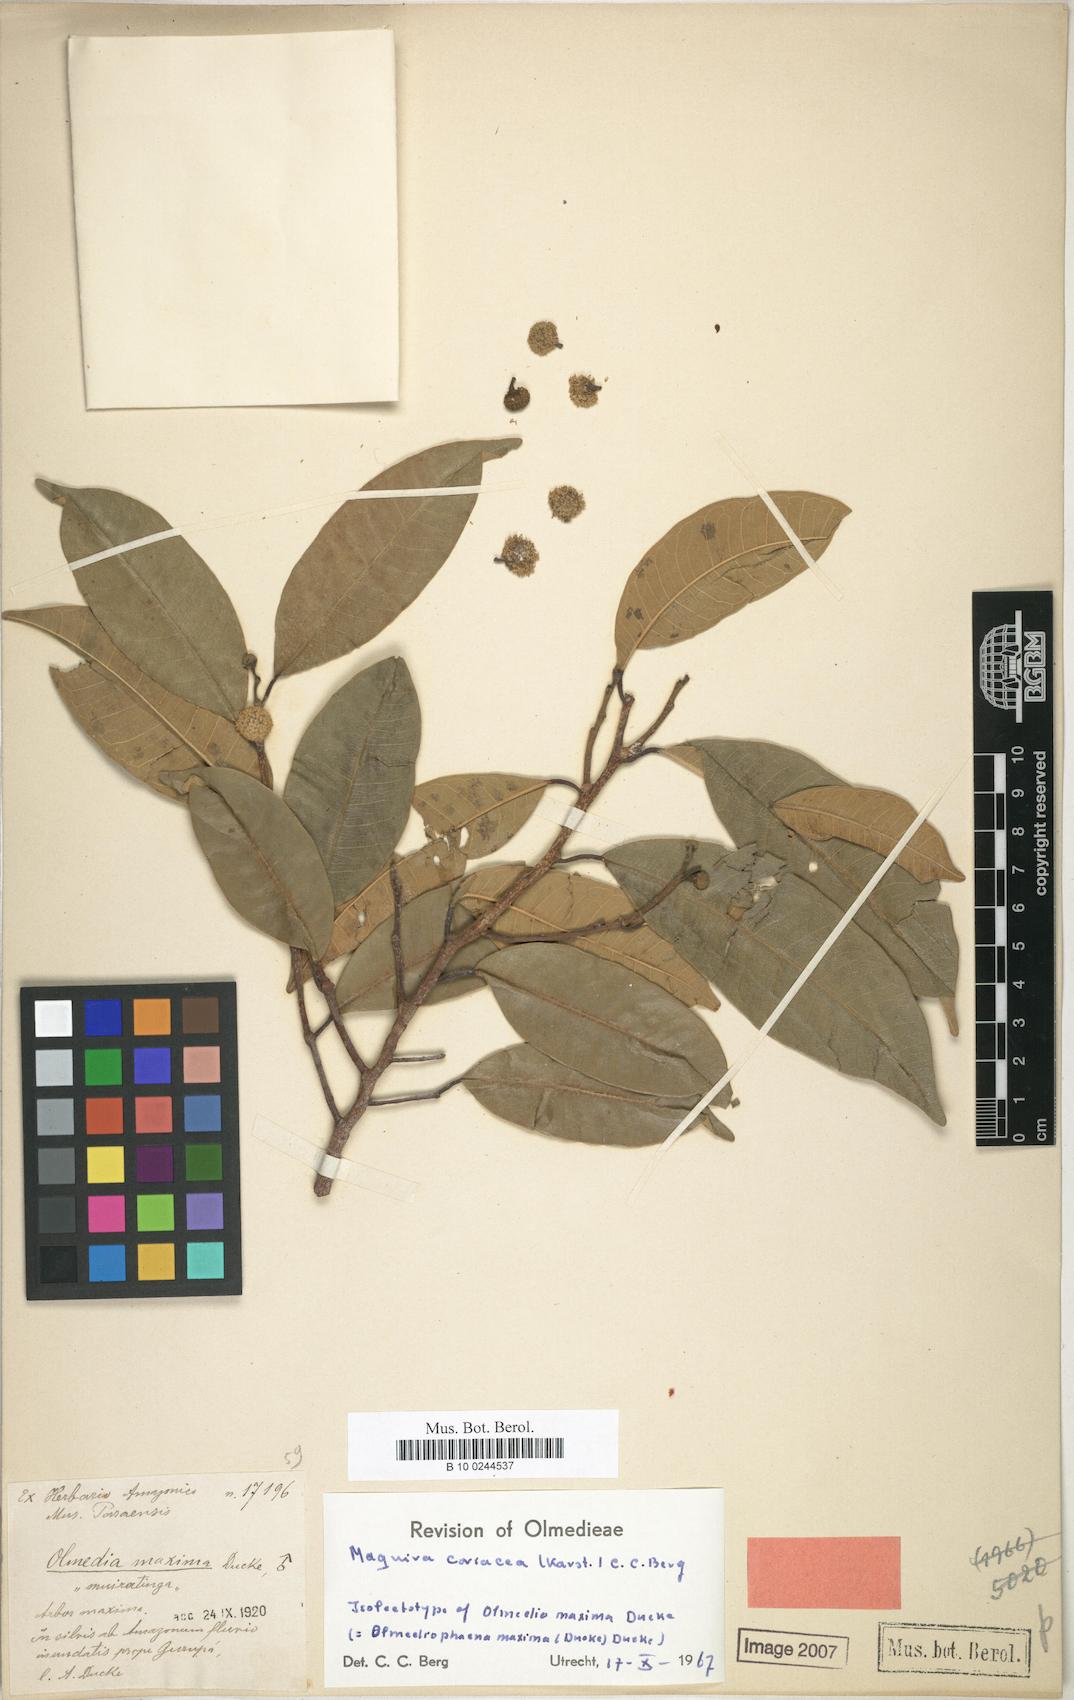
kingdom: Plantae
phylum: Tracheophyta
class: Magnoliopsida
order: Rosales
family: Moraceae
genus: Maquira
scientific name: Maquira coriacea
